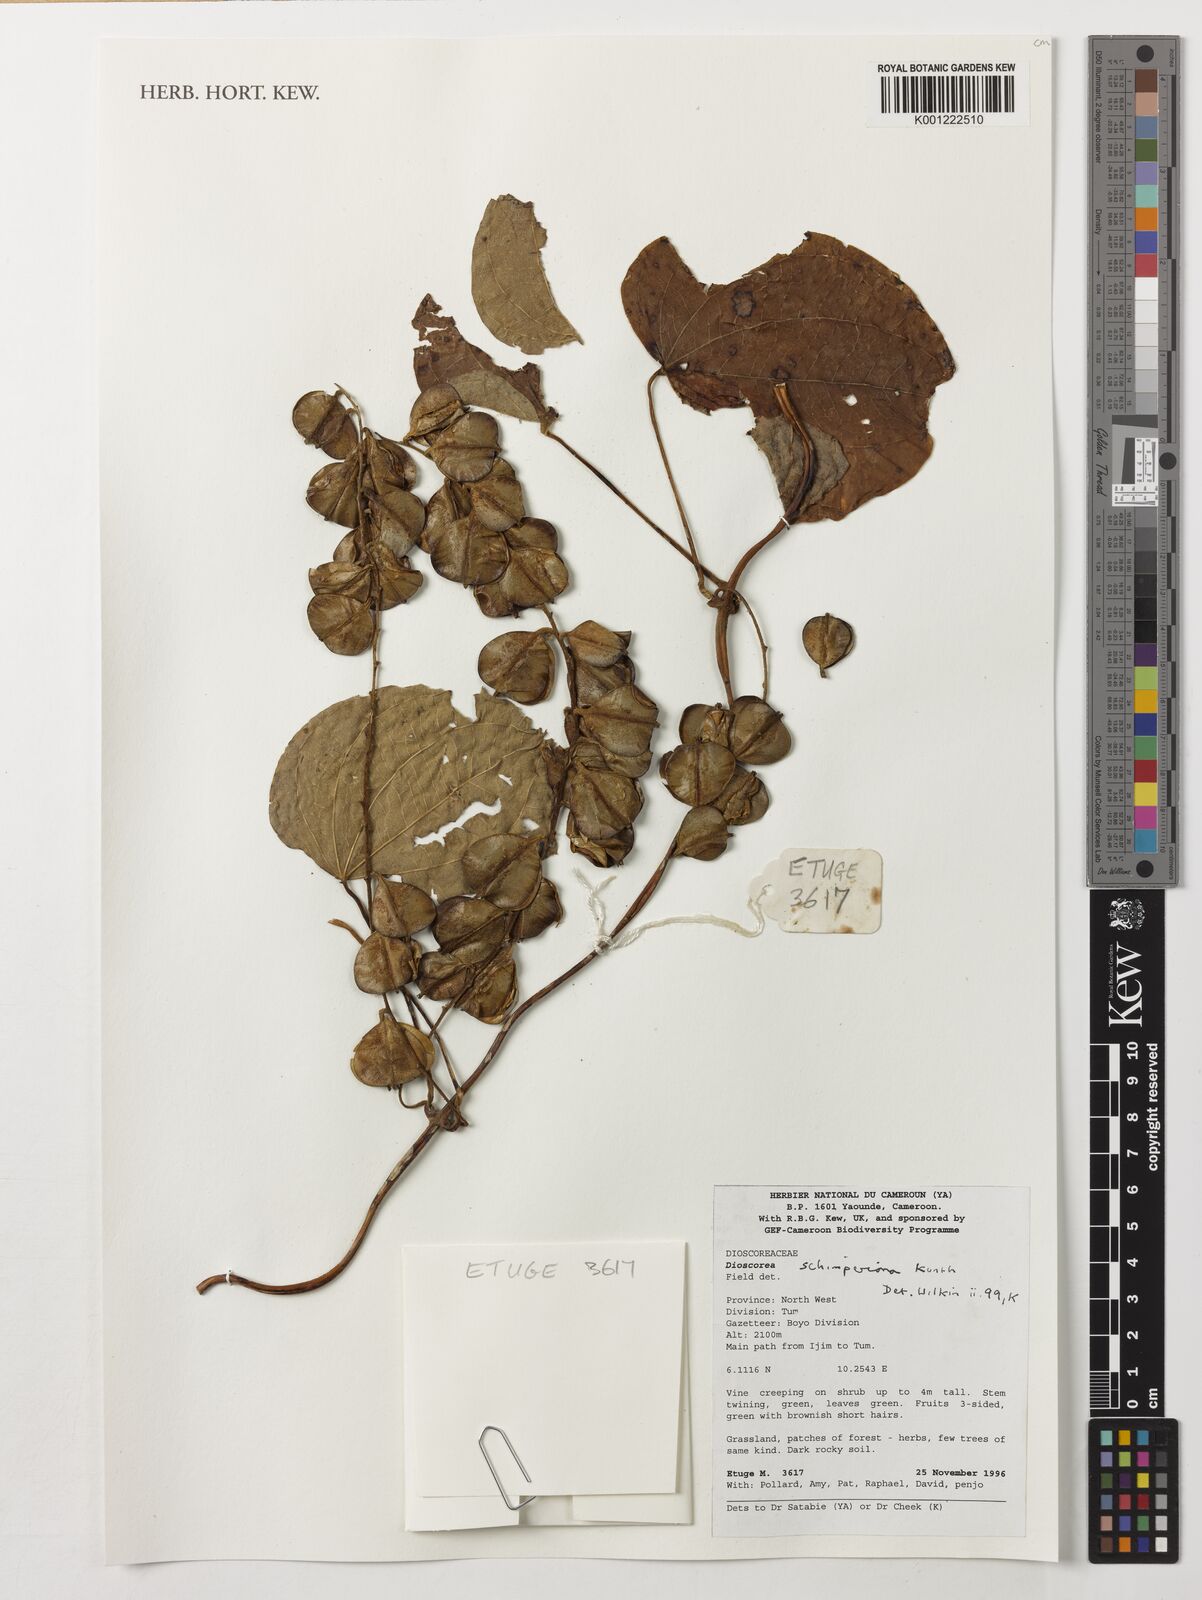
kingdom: Plantae
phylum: Tracheophyta
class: Liliopsida
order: Dioscoreales
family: Dioscoreaceae
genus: Dioscorea
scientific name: Dioscorea schimperiana
